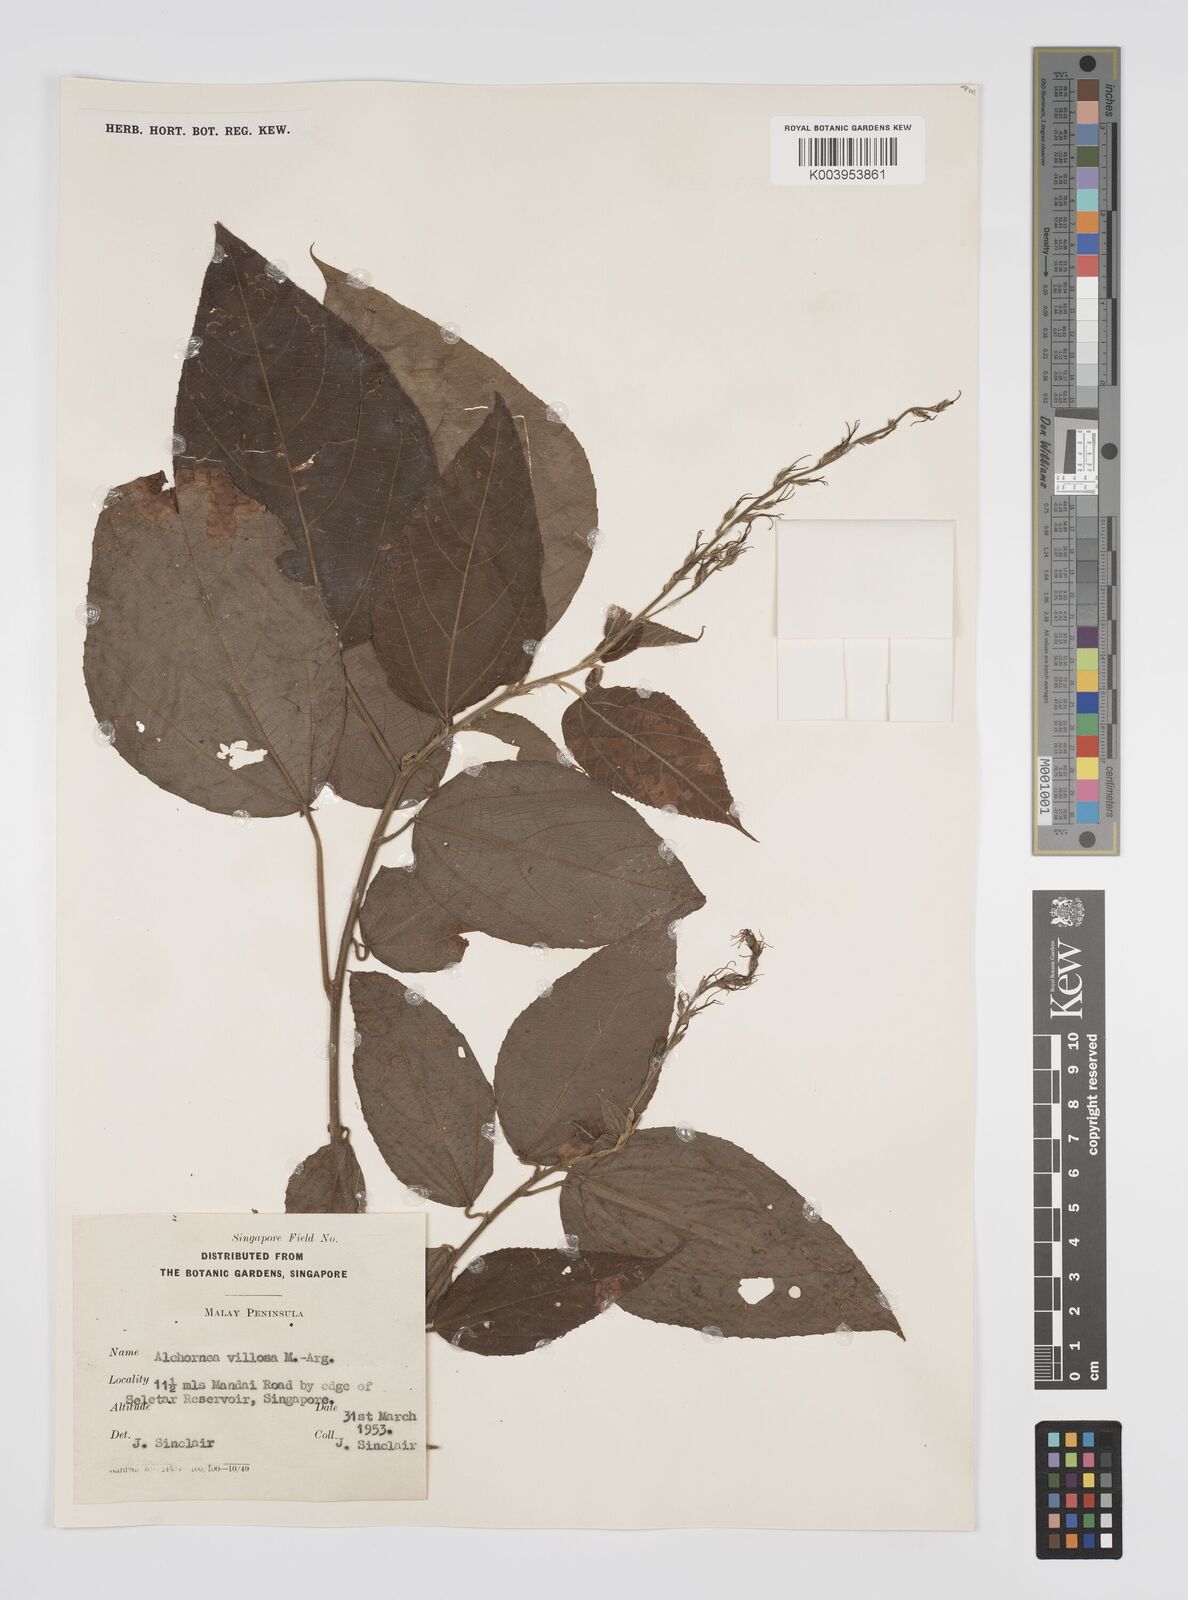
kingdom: Plantae
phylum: Tracheophyta
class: Magnoliopsida
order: Malpighiales
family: Euphorbiaceae
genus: Alchornea
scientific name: Alchornea tiliifolia
